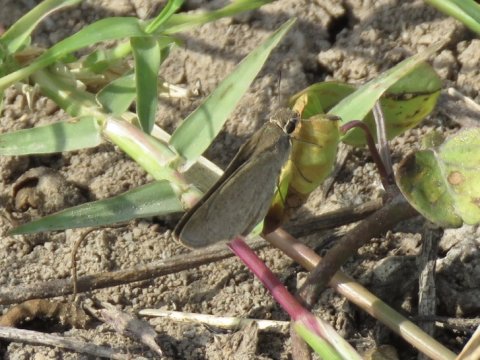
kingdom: Animalia
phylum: Arthropoda
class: Insecta
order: Lepidoptera
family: Hesperiidae
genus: Lerodea
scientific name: Lerodea eufala
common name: Eufala Skipper
